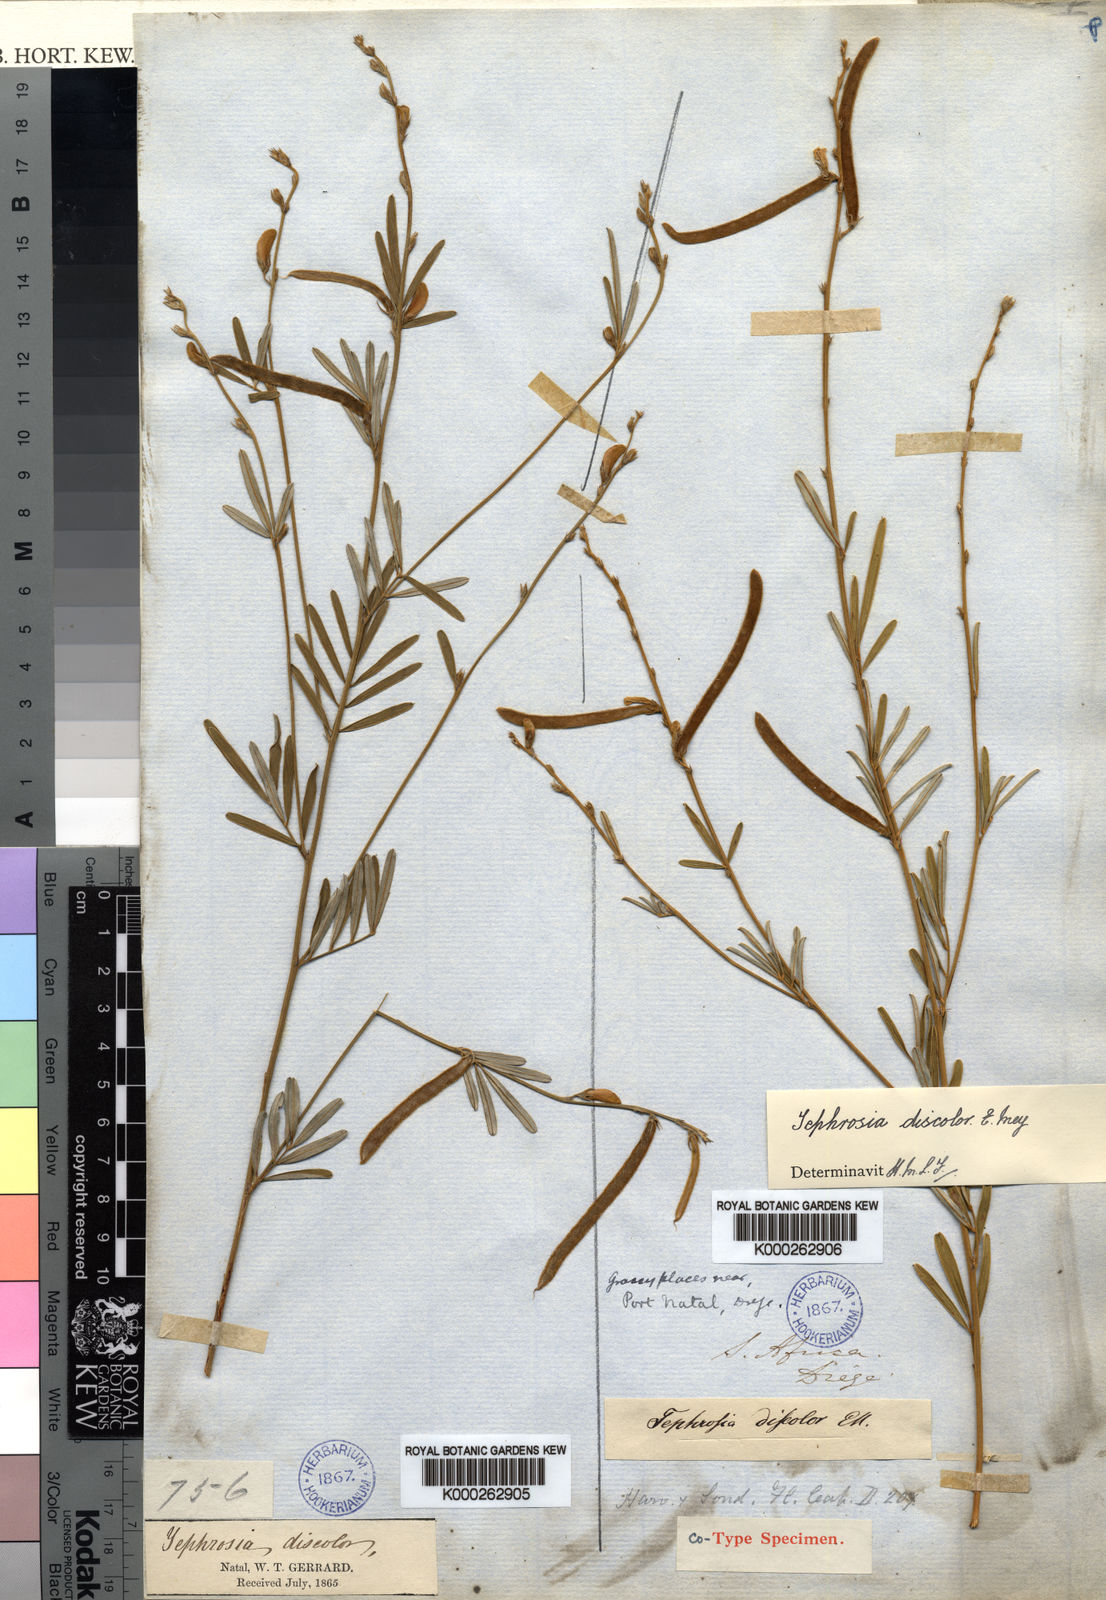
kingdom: Plantae
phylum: Tracheophyta
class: Magnoliopsida
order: Fabales
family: Fabaceae
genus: Tephrosia
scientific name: Tephrosia linearis
